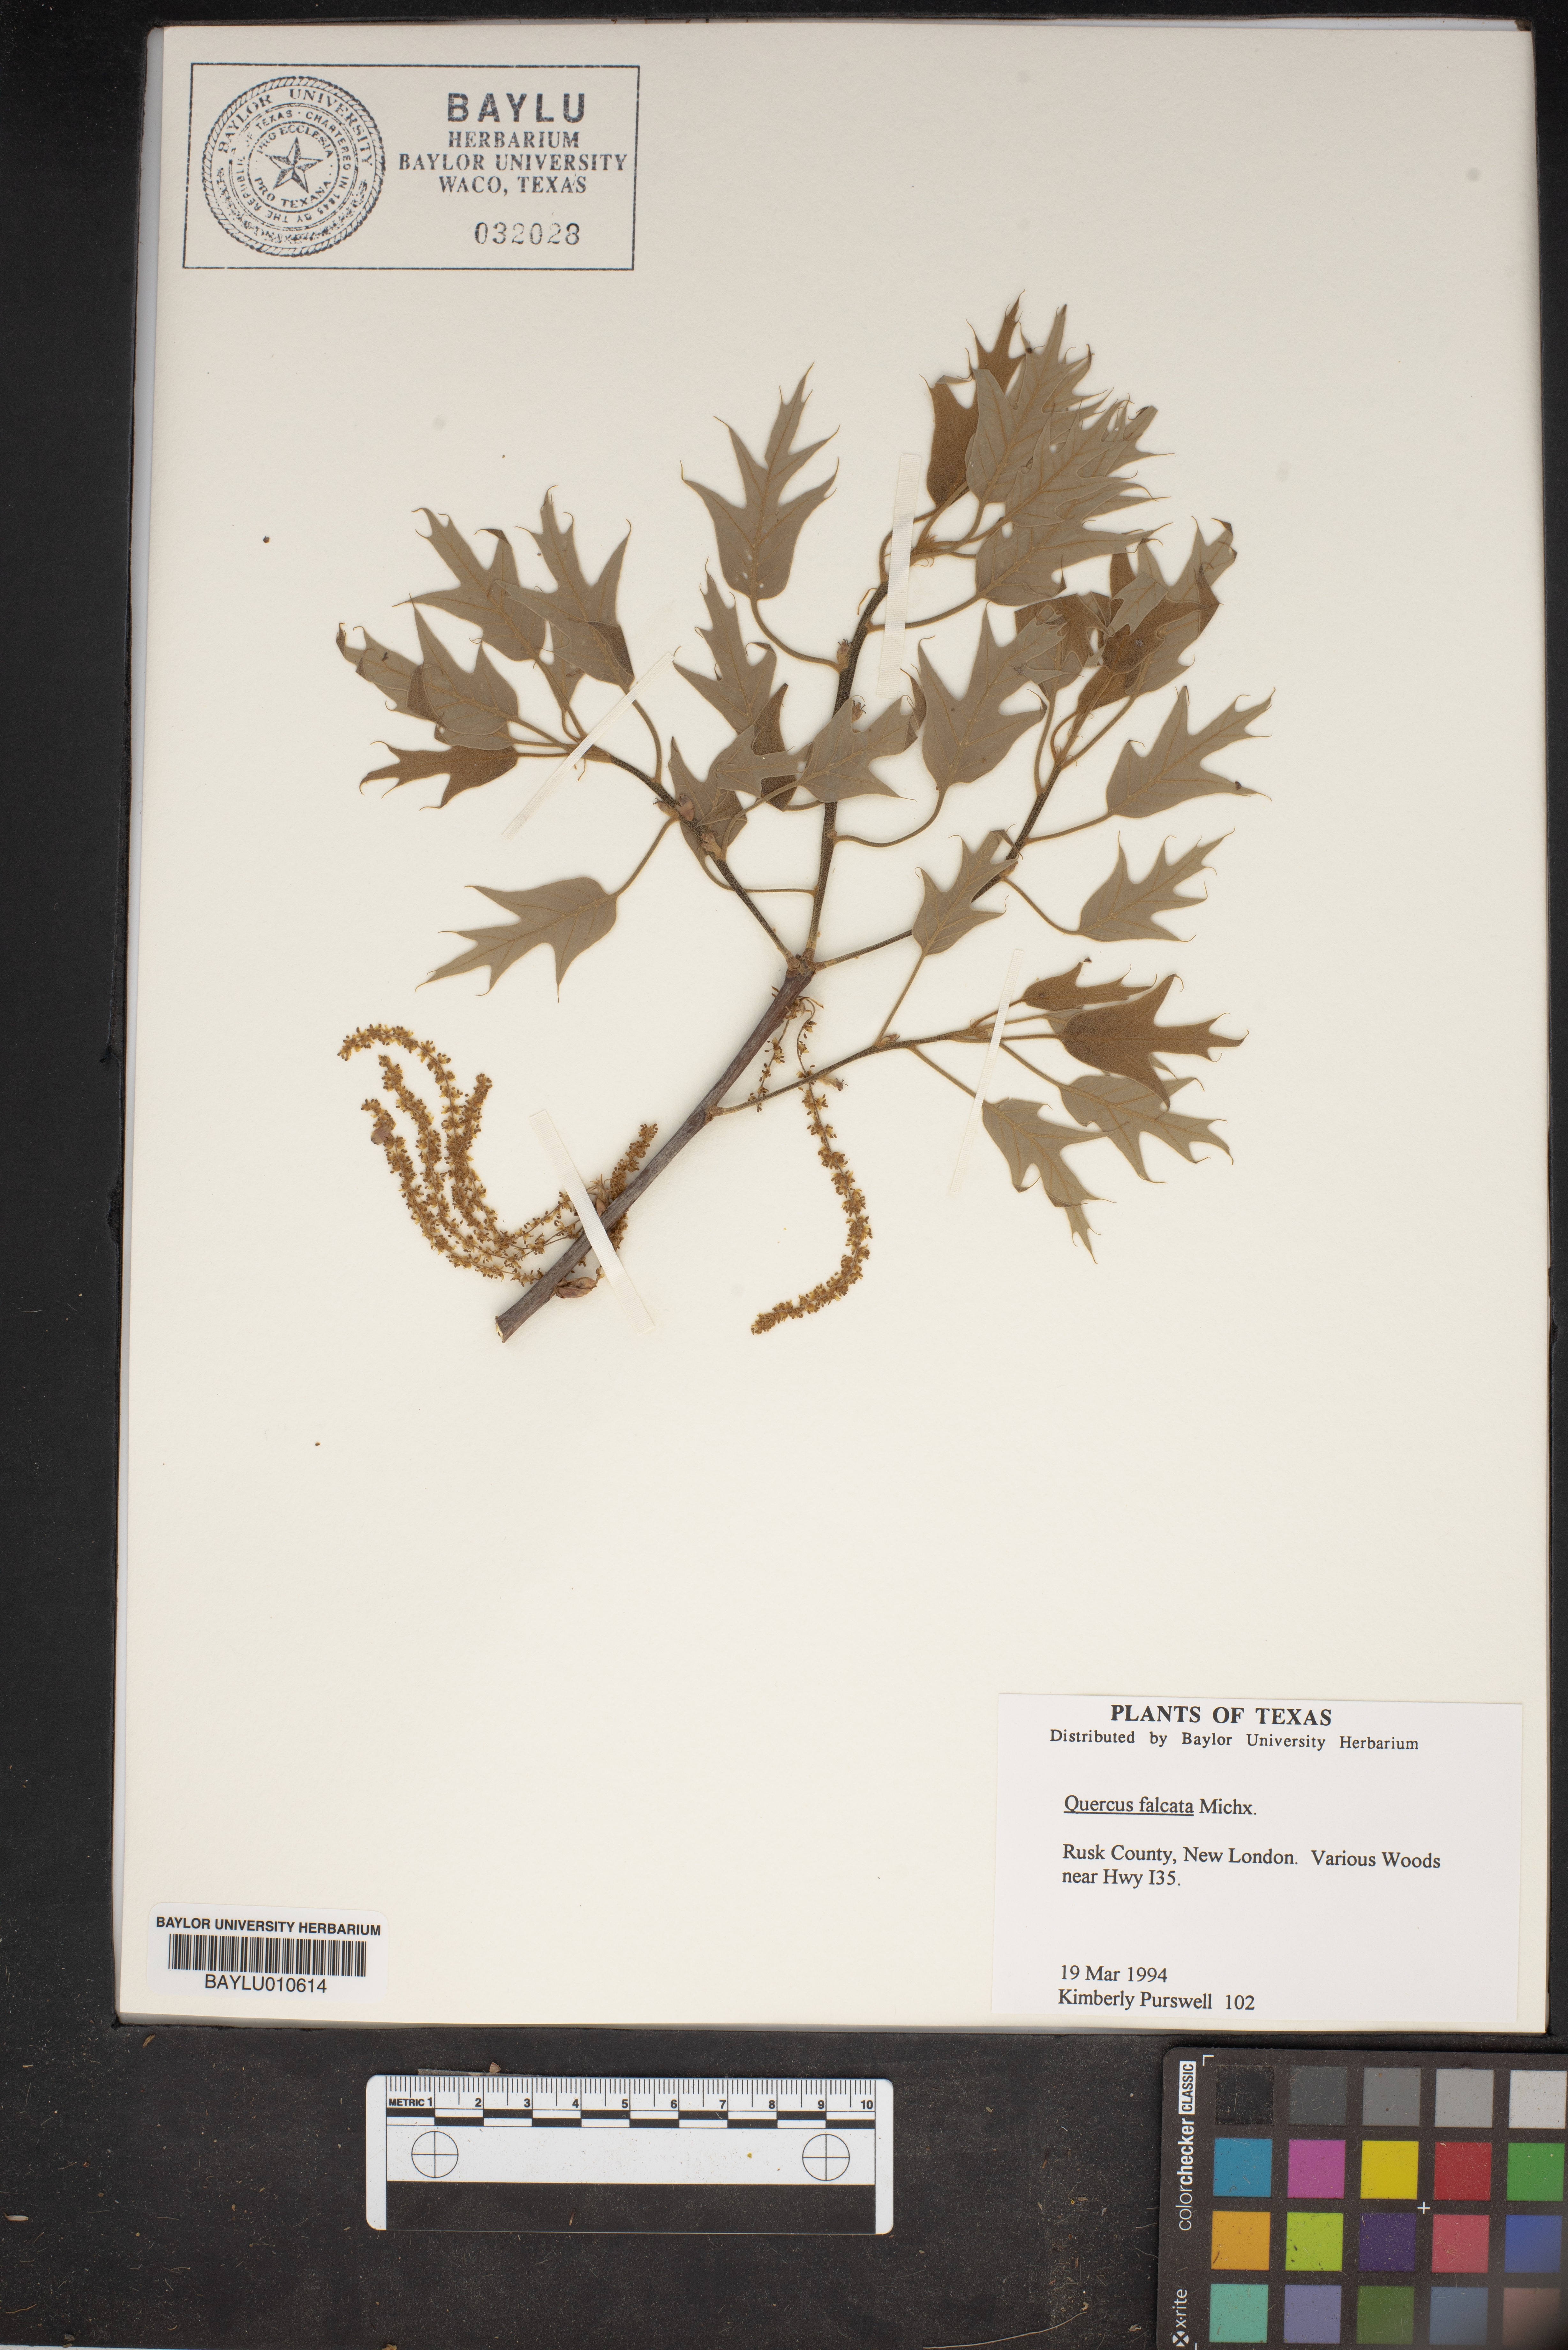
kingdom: Plantae
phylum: Tracheophyta
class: Magnoliopsida
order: Fagales
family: Fagaceae
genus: Quercus
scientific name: Quercus falcata
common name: Southern red oak
